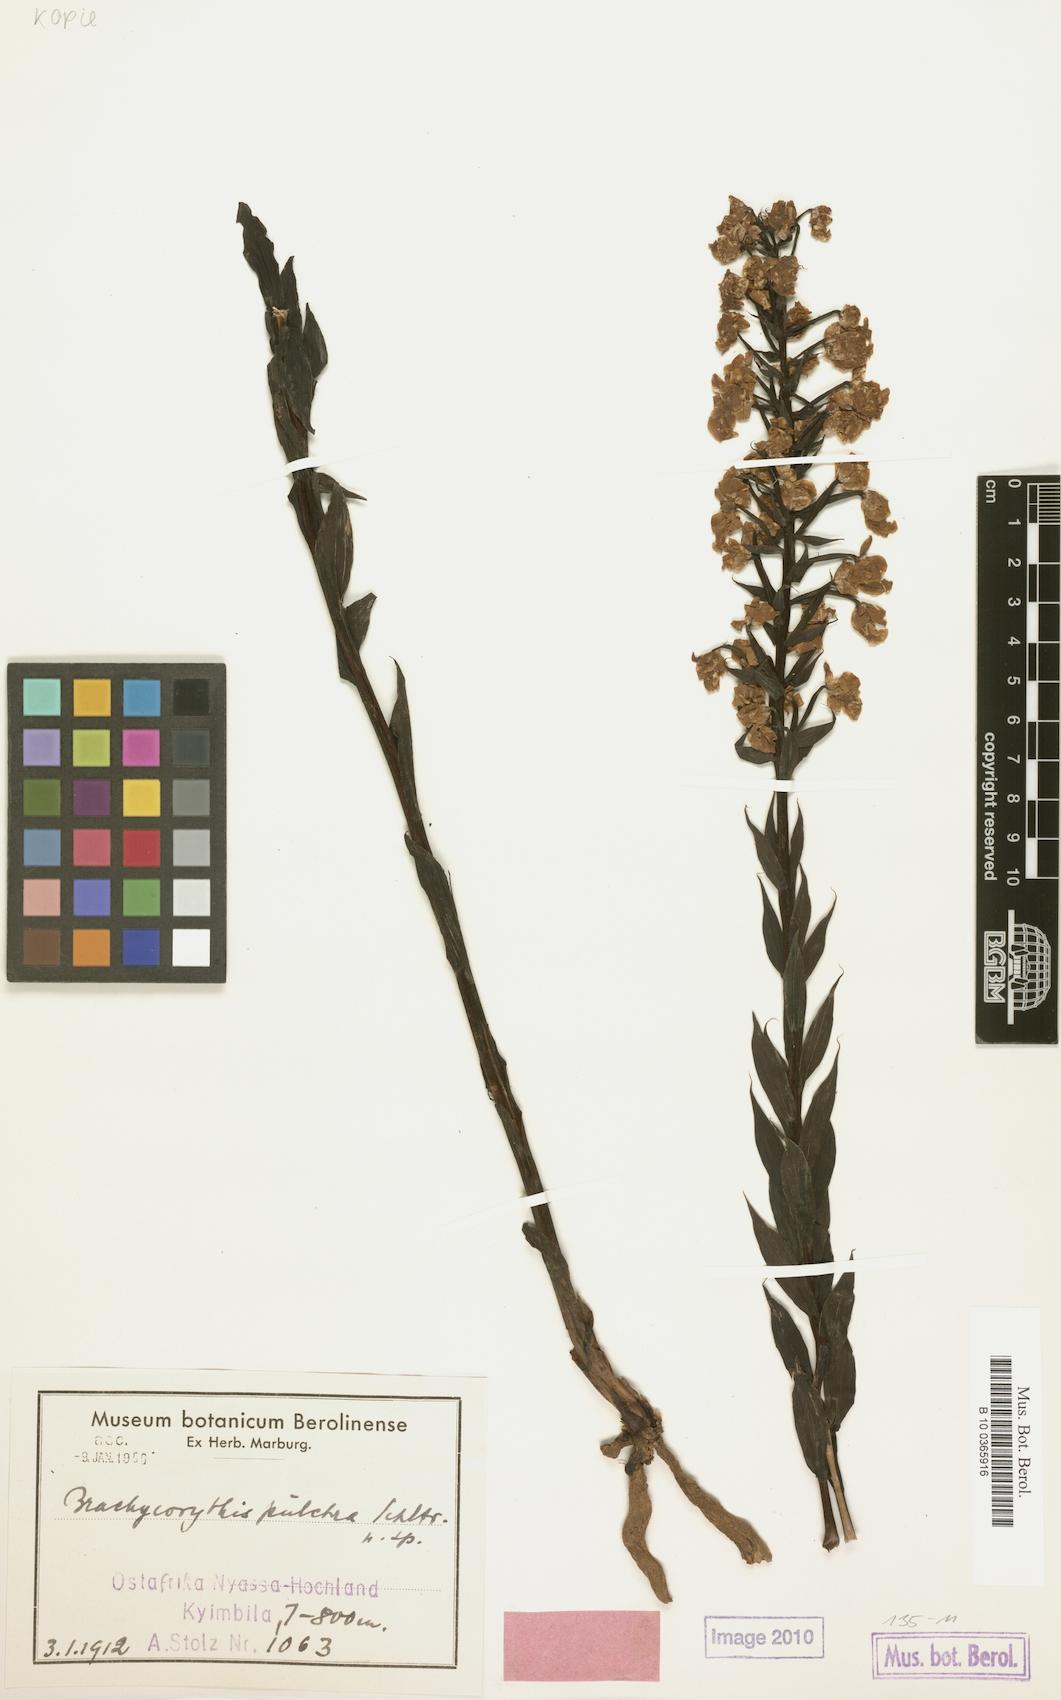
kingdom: Plantae
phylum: Tracheophyta
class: Liliopsida
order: Asparagales
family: Orchidaceae
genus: Brachycorythis
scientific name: Brachycorythis pleistophylla
